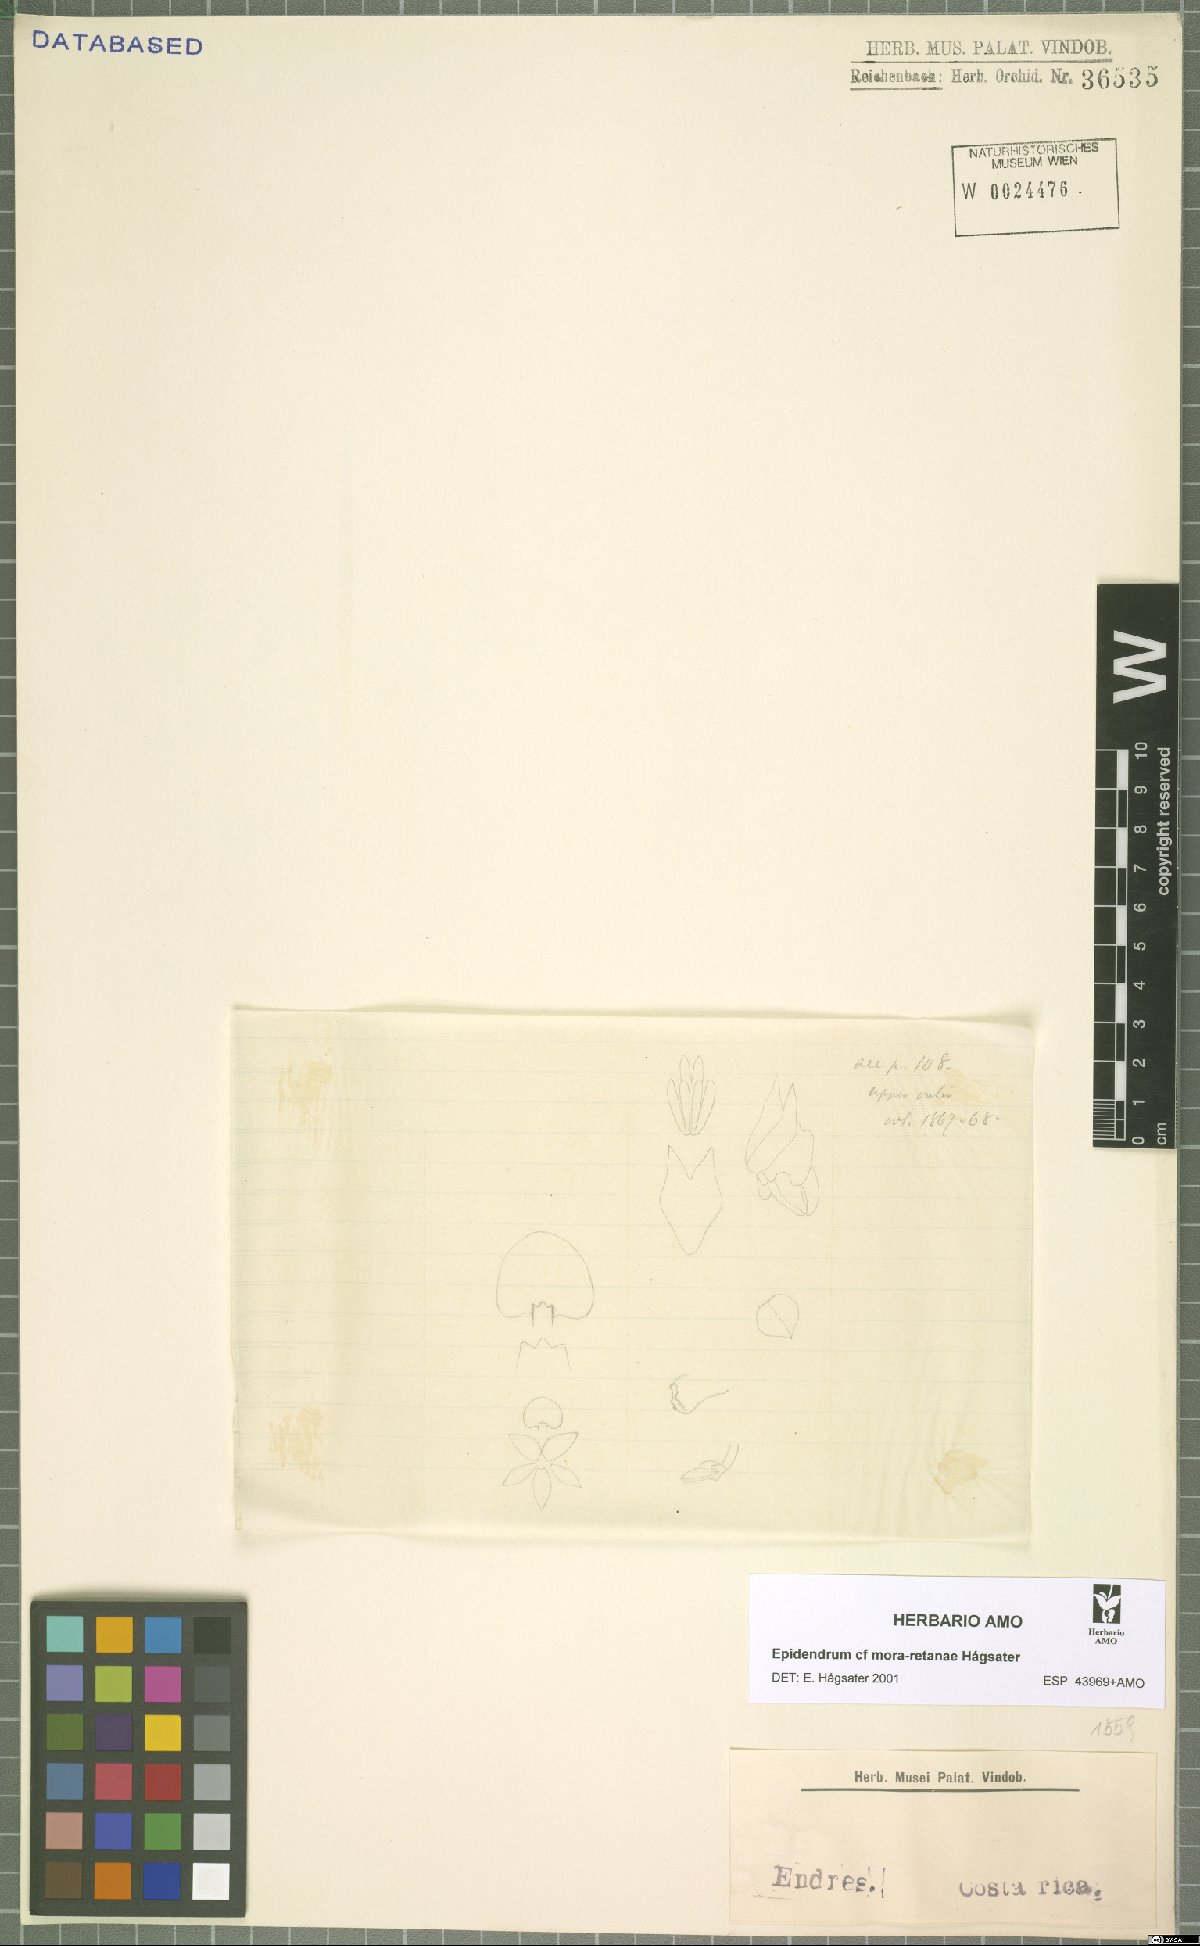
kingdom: Plantae
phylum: Tracheophyta
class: Liliopsida
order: Asparagales
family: Orchidaceae
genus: Epidendrum
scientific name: Epidendrum mora-retanae
